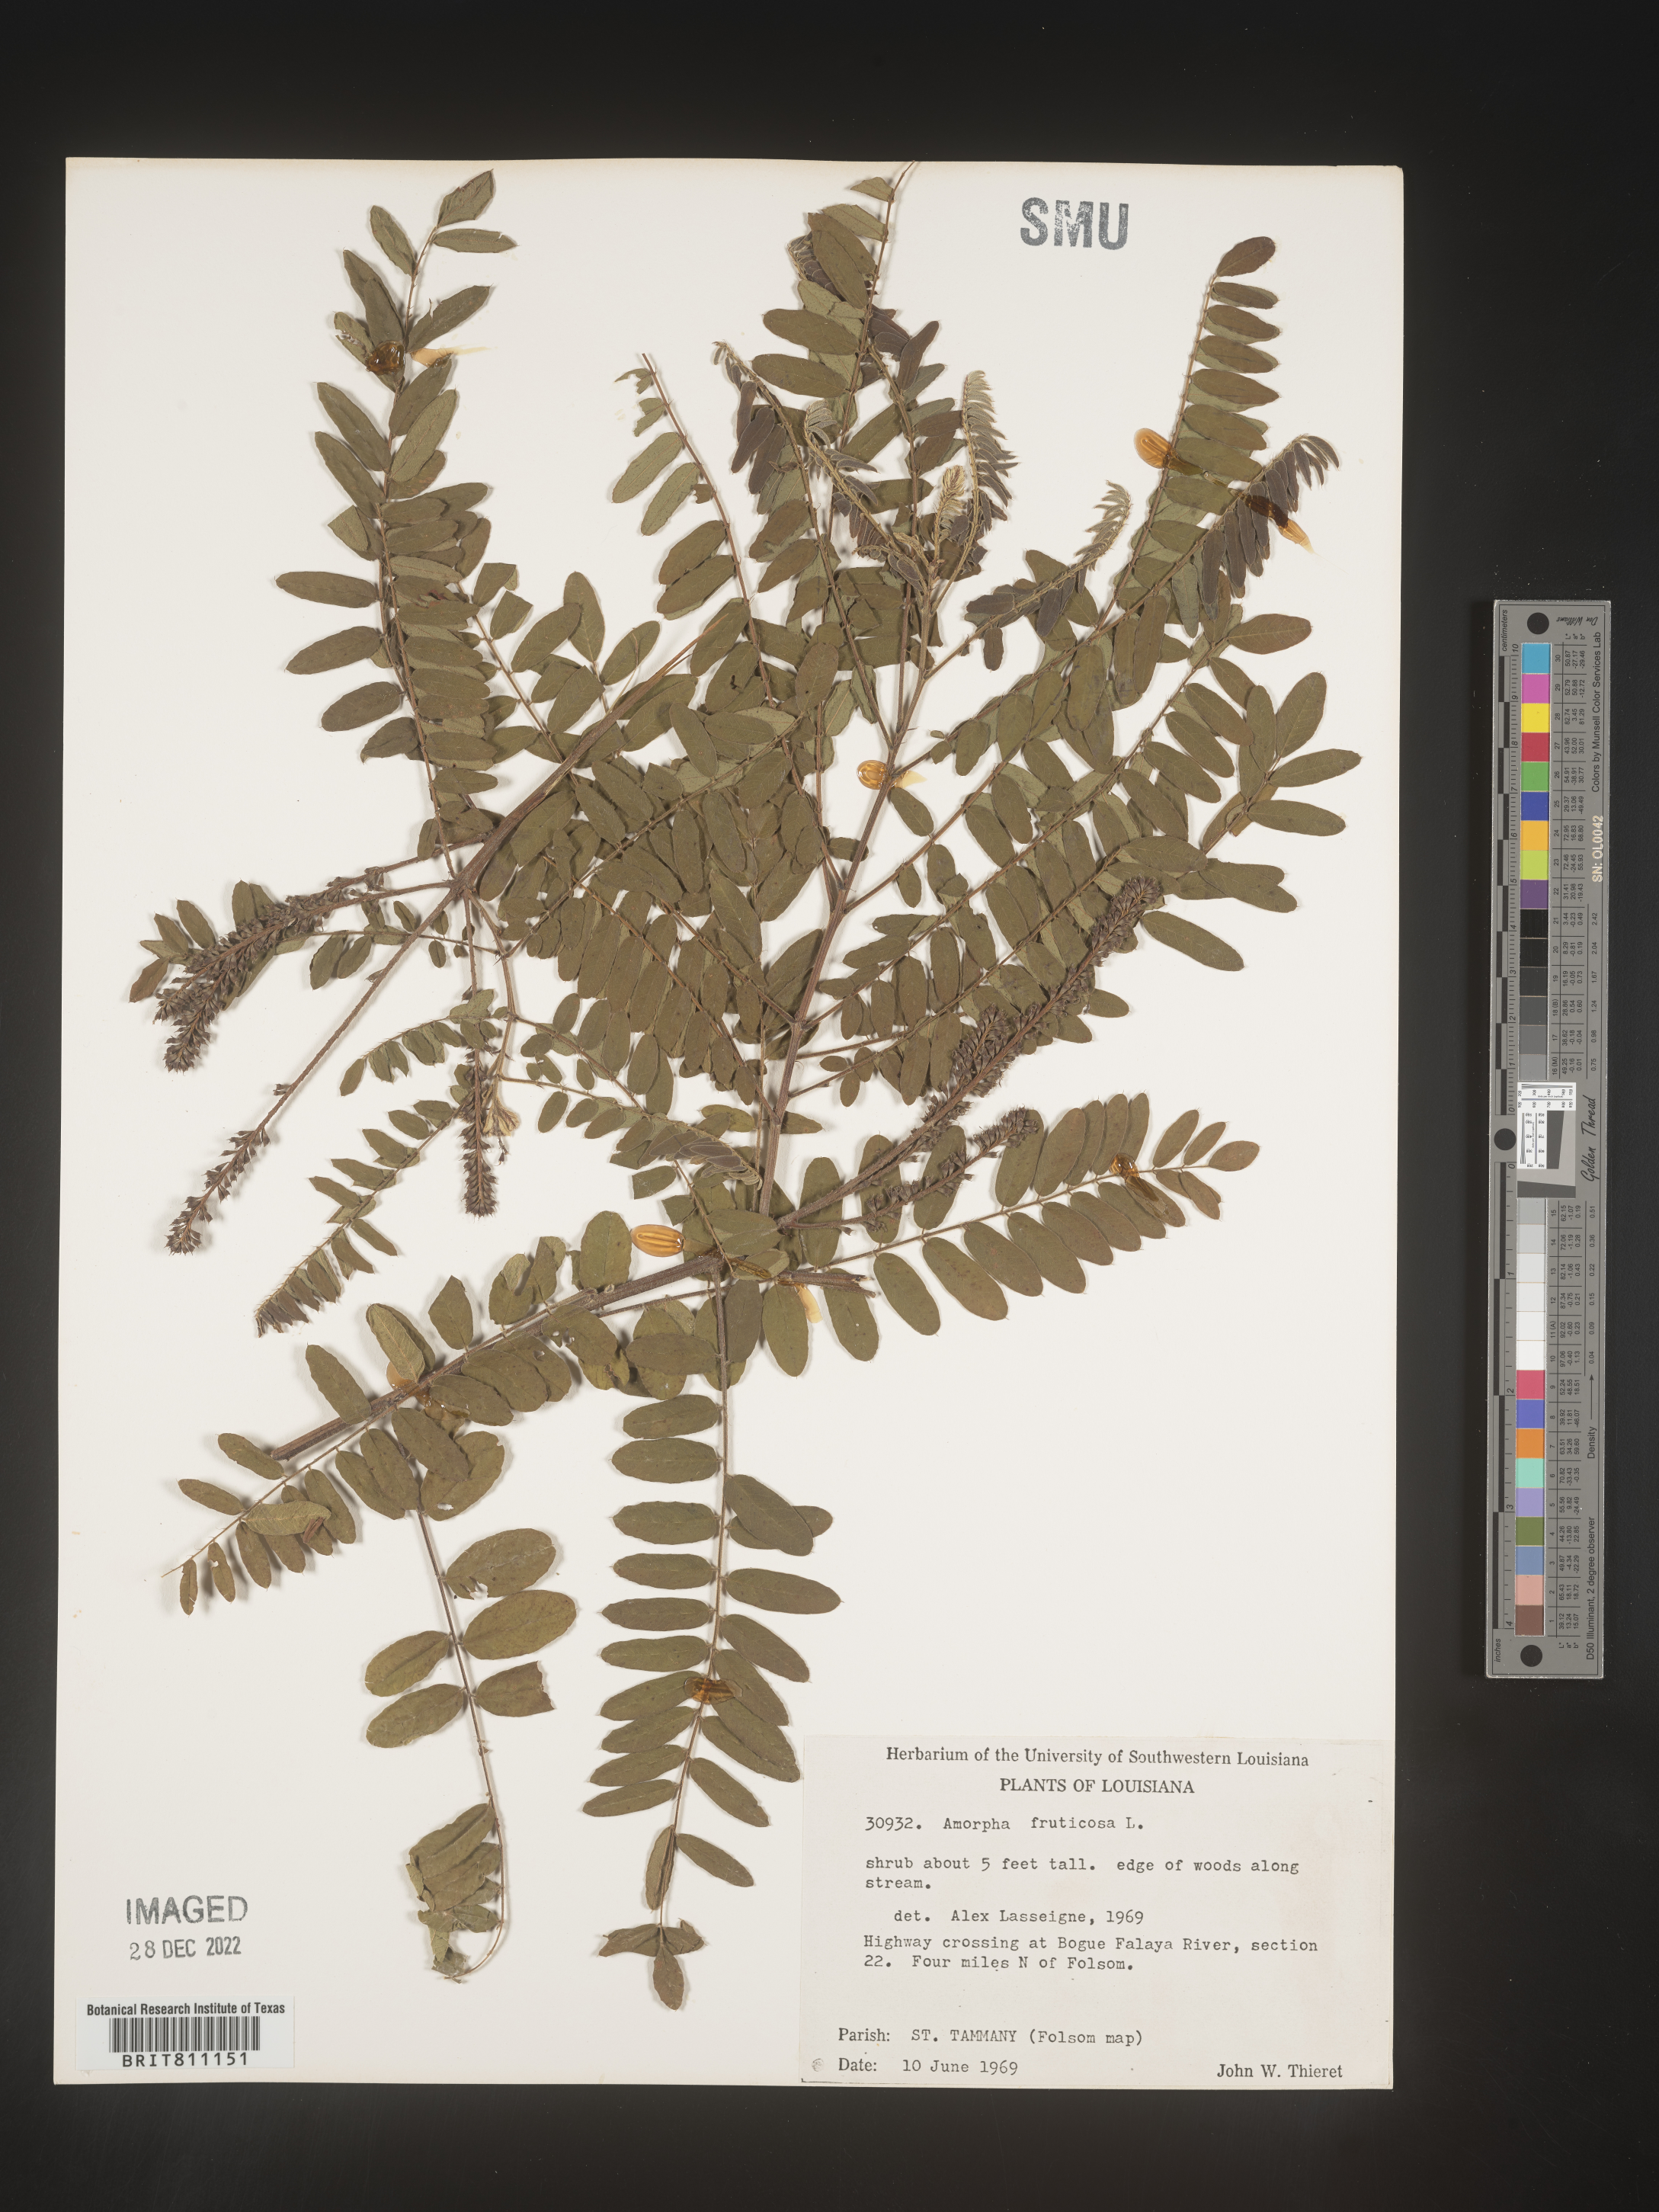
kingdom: Plantae
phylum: Tracheophyta
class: Magnoliopsida
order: Fabales
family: Fabaceae
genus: Amorpha
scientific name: Amorpha fruticosa
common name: False indigo
